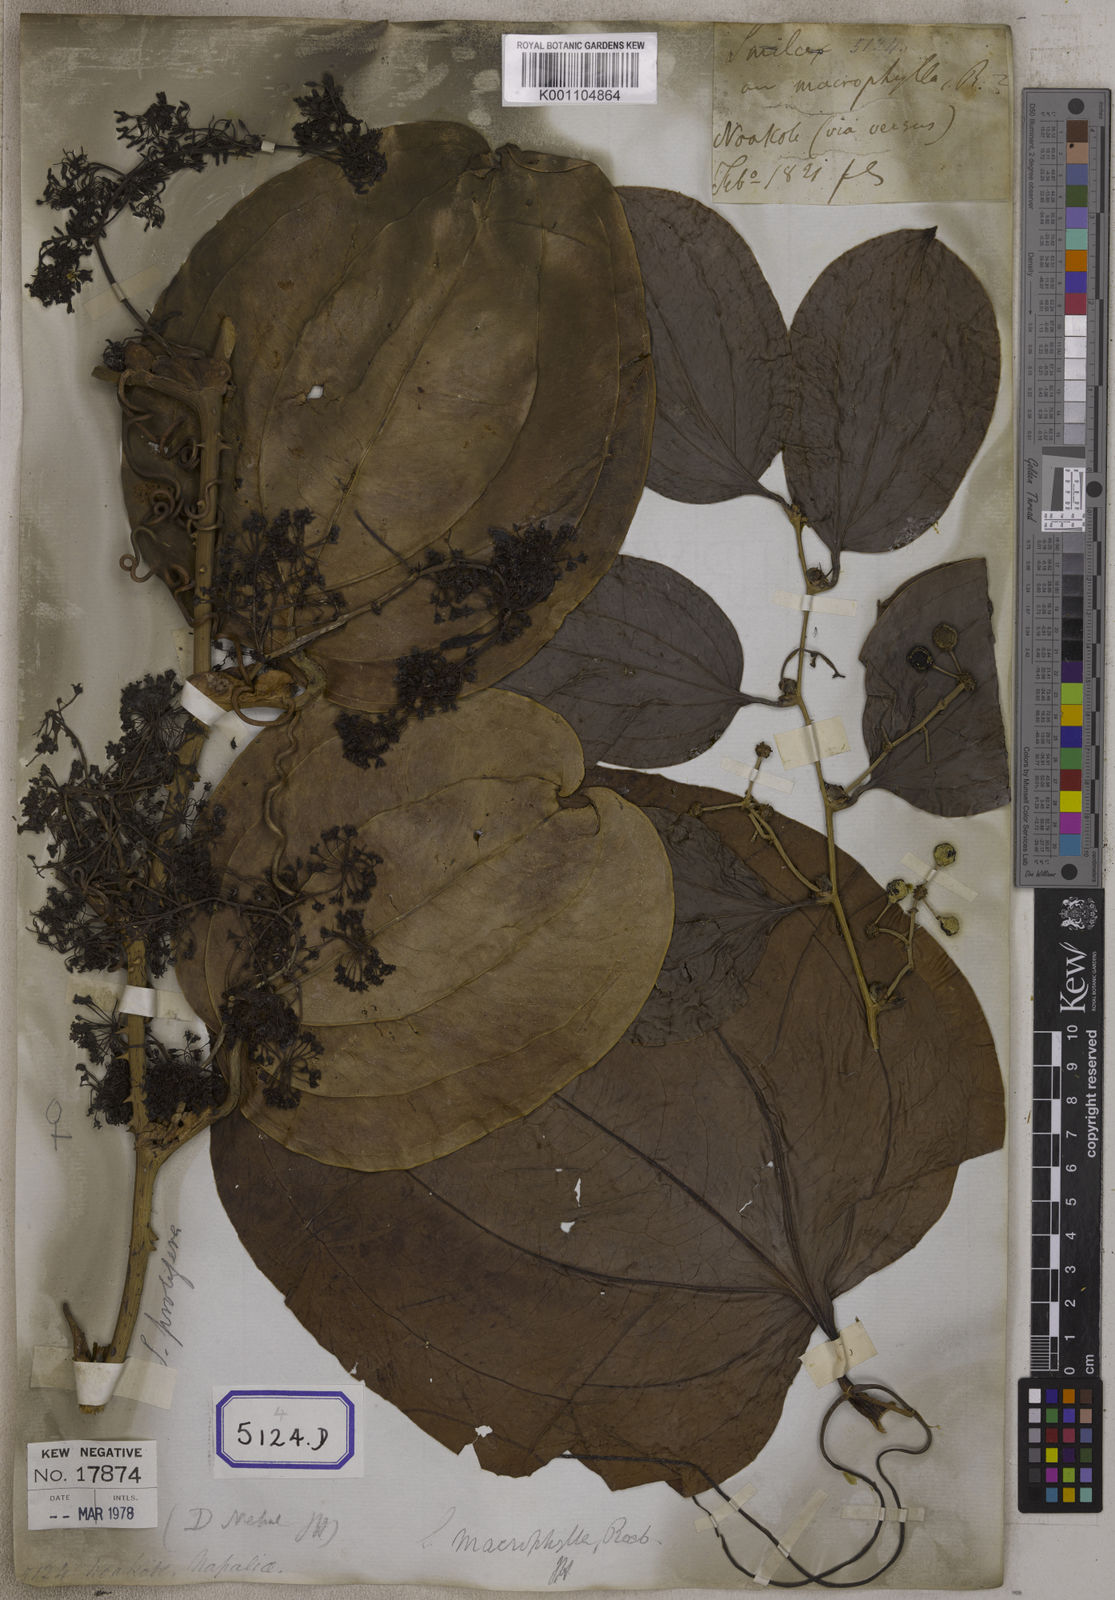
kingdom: Plantae
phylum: Tracheophyta
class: Liliopsida
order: Liliales
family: Smilacaceae
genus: Smilax
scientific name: Smilax prolifera
